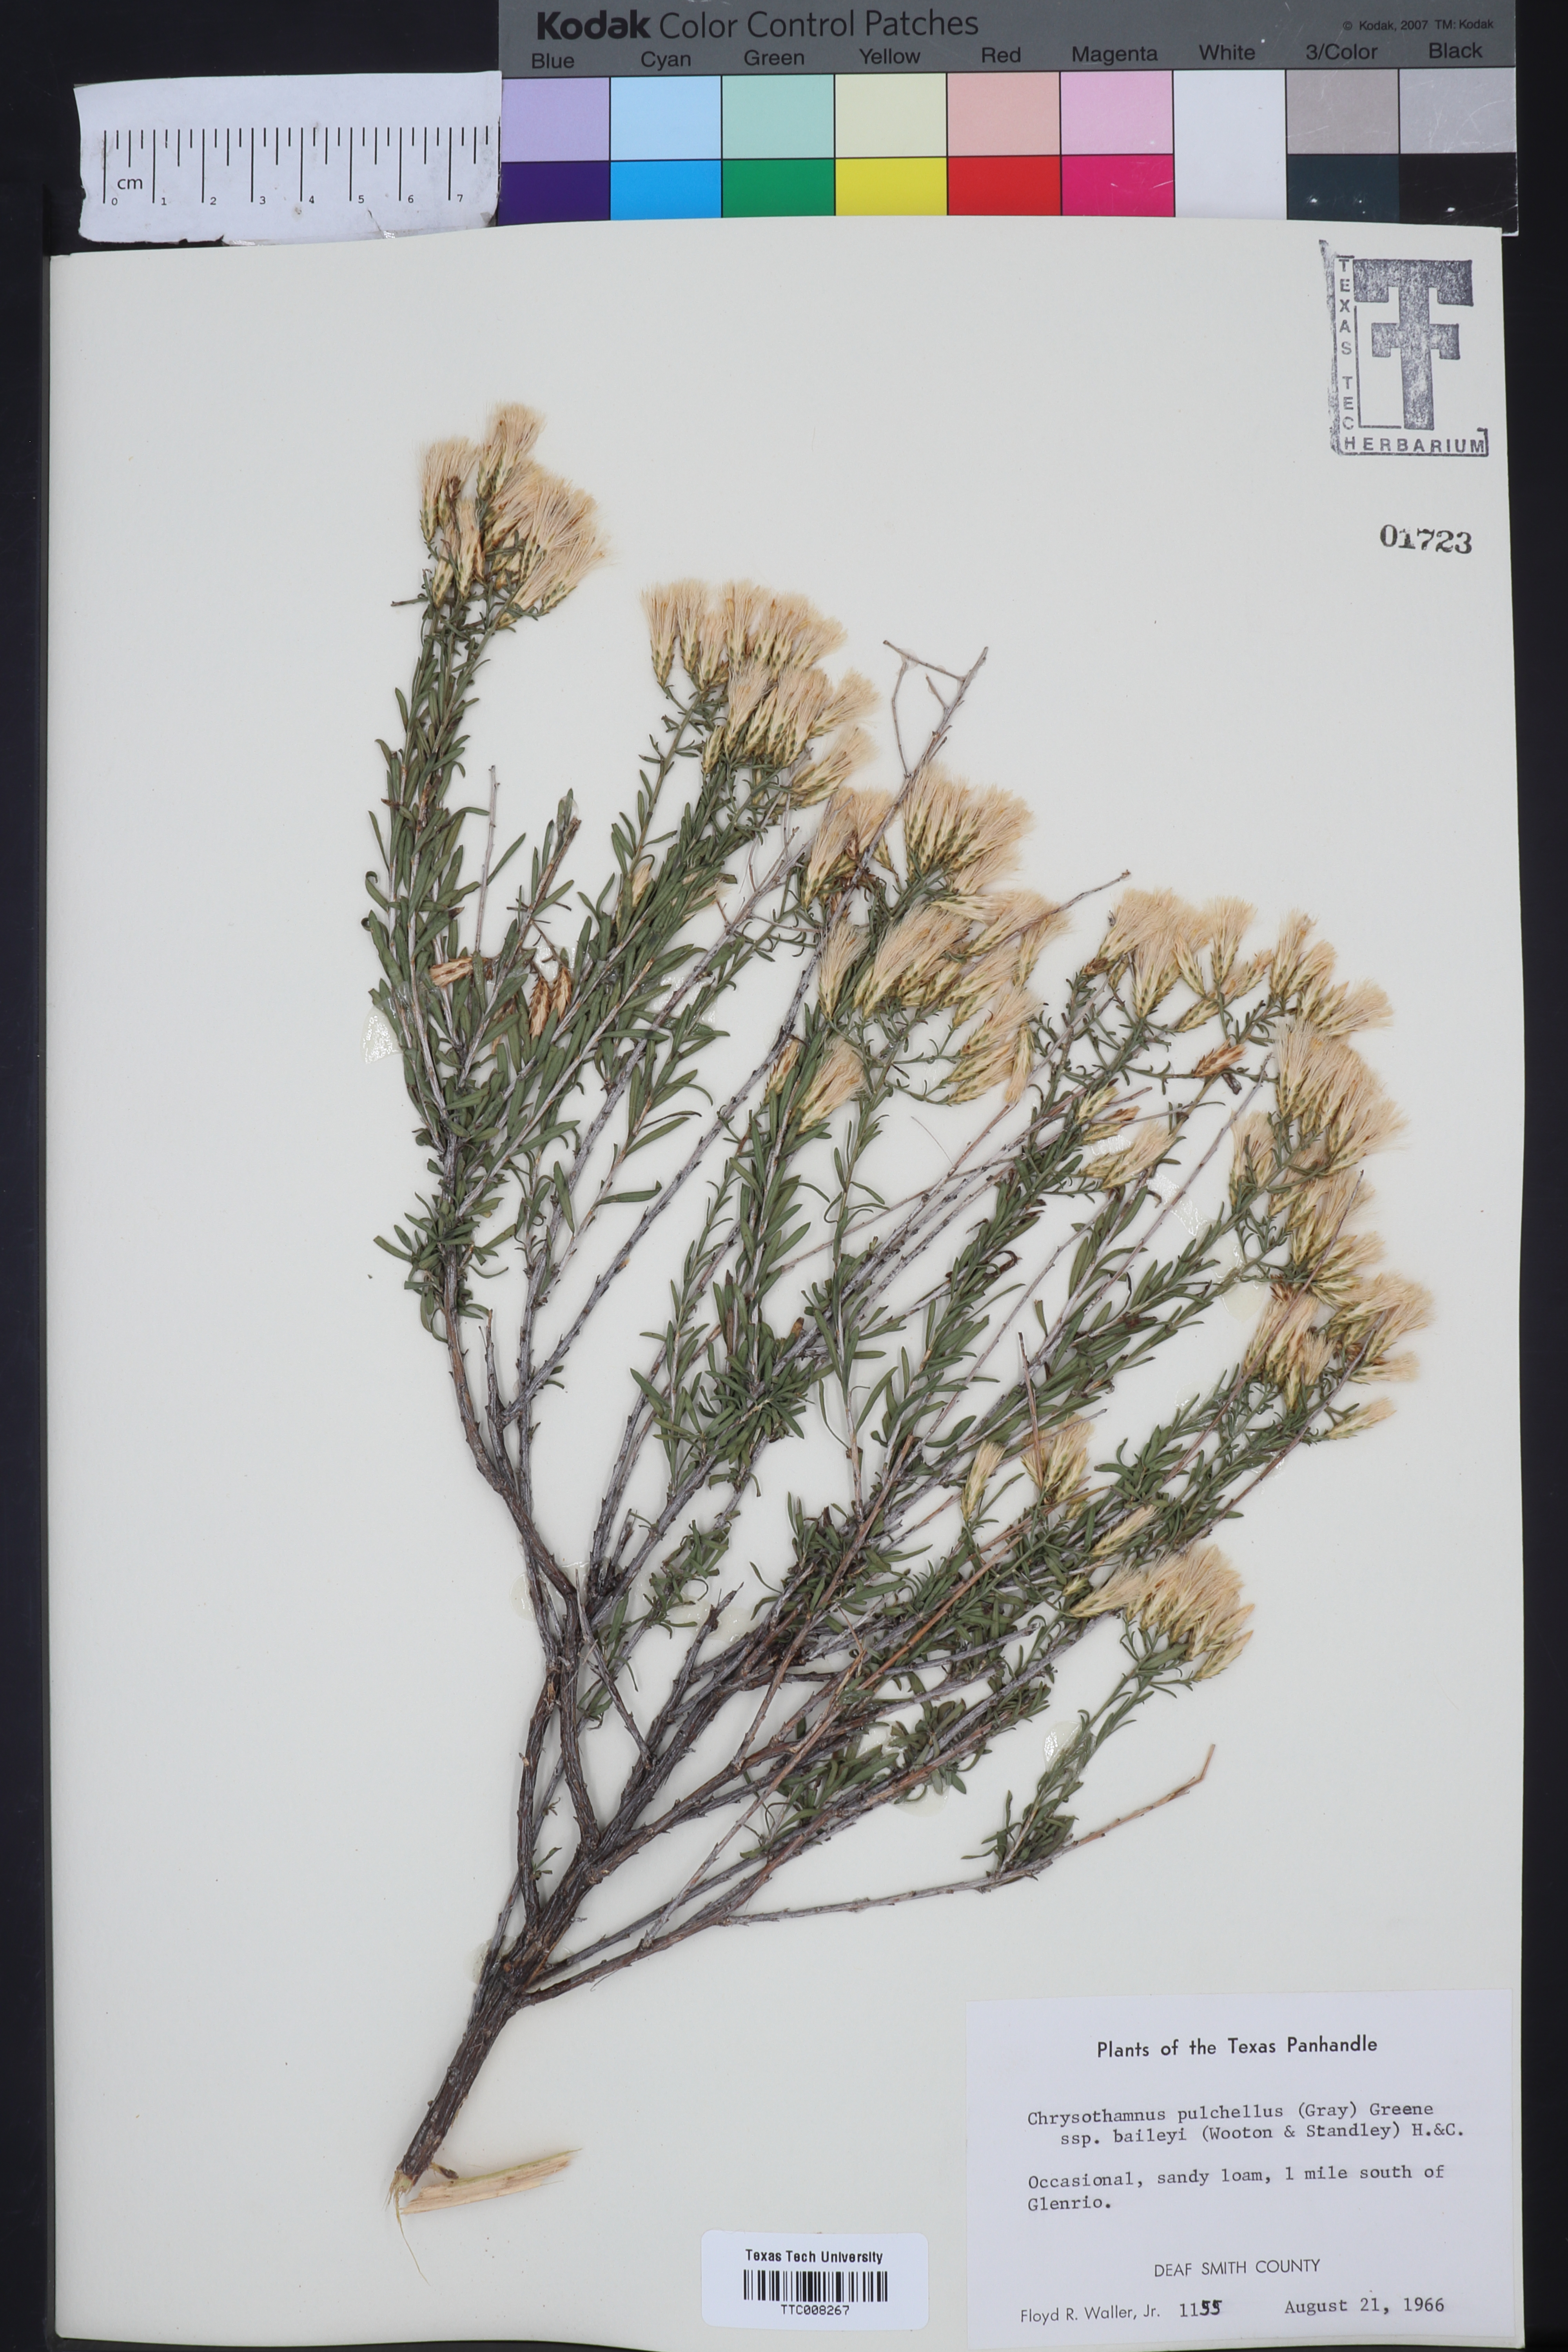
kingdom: Plantae
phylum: Tracheophyta
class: Magnoliopsida
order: Asterales
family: Asteraceae
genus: Lorandersonia
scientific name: Lorandersonia baileyi
